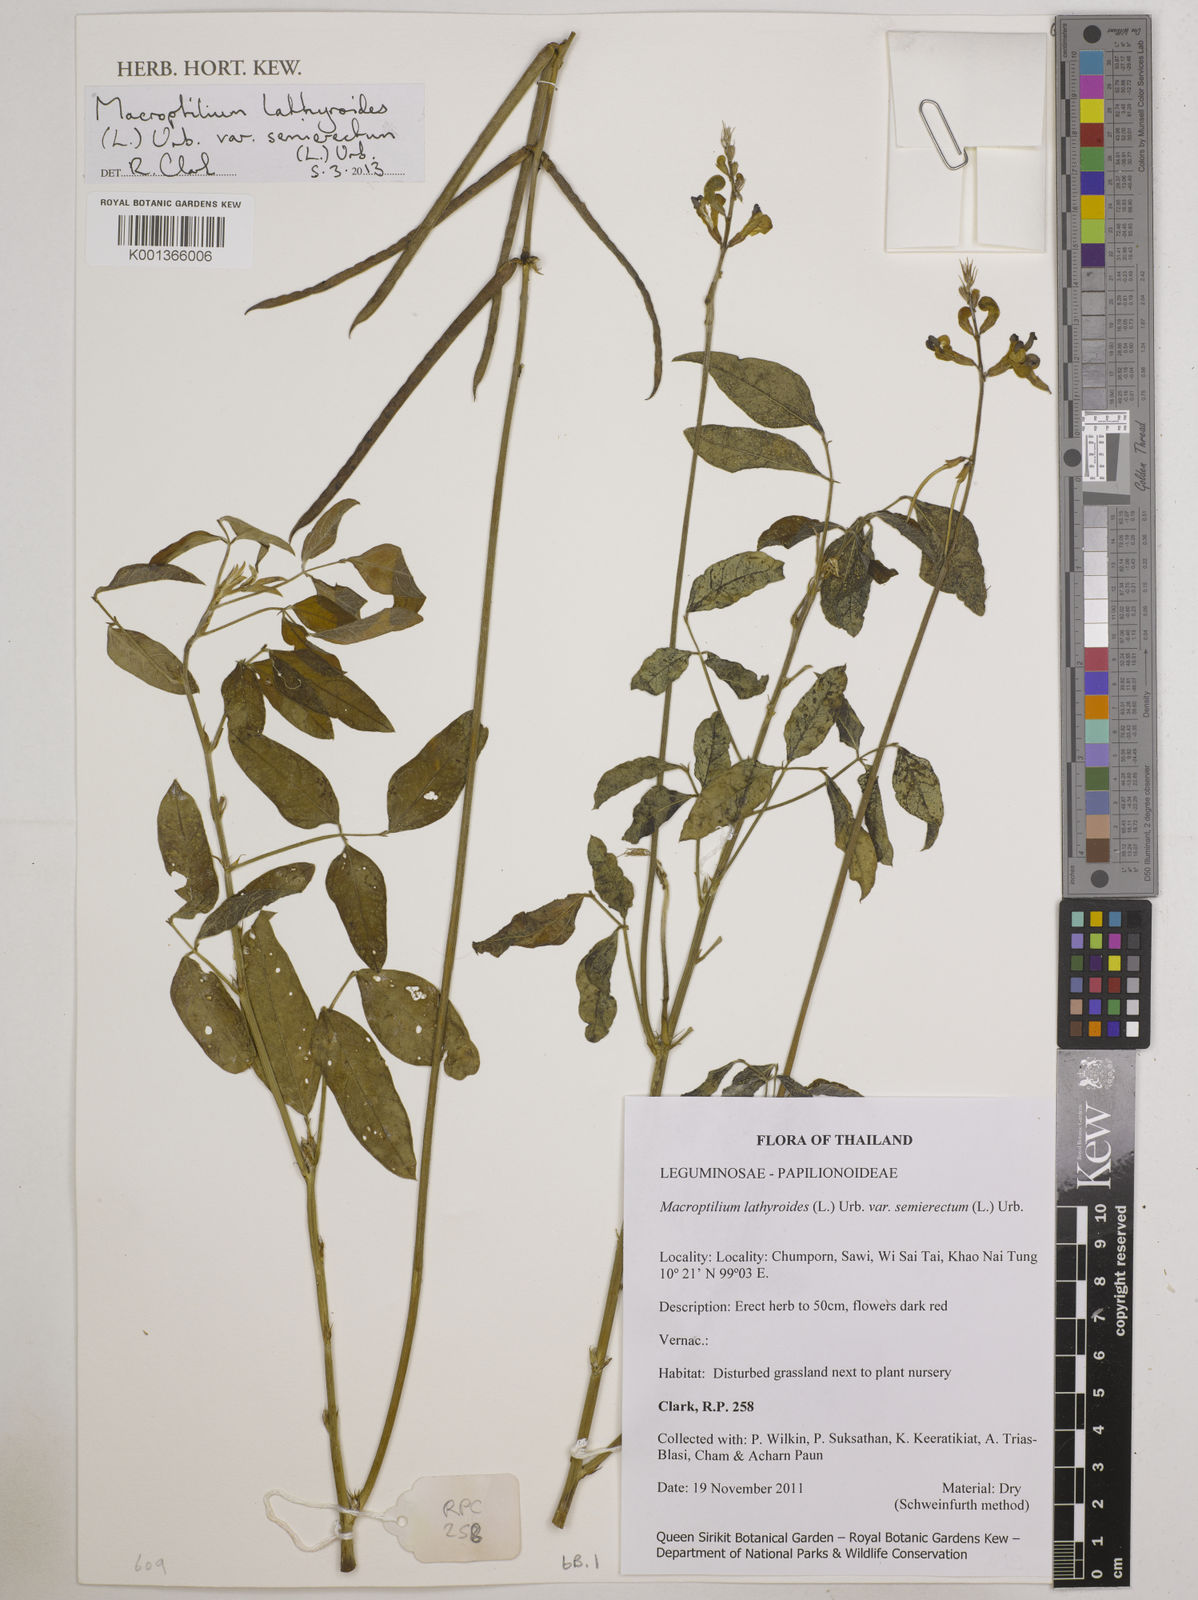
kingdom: Plantae
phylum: Tracheophyta
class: Magnoliopsida
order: Fabales
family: Fabaceae
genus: Macroptilium
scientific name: Macroptilium lathyroides
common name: Wild bushbean
